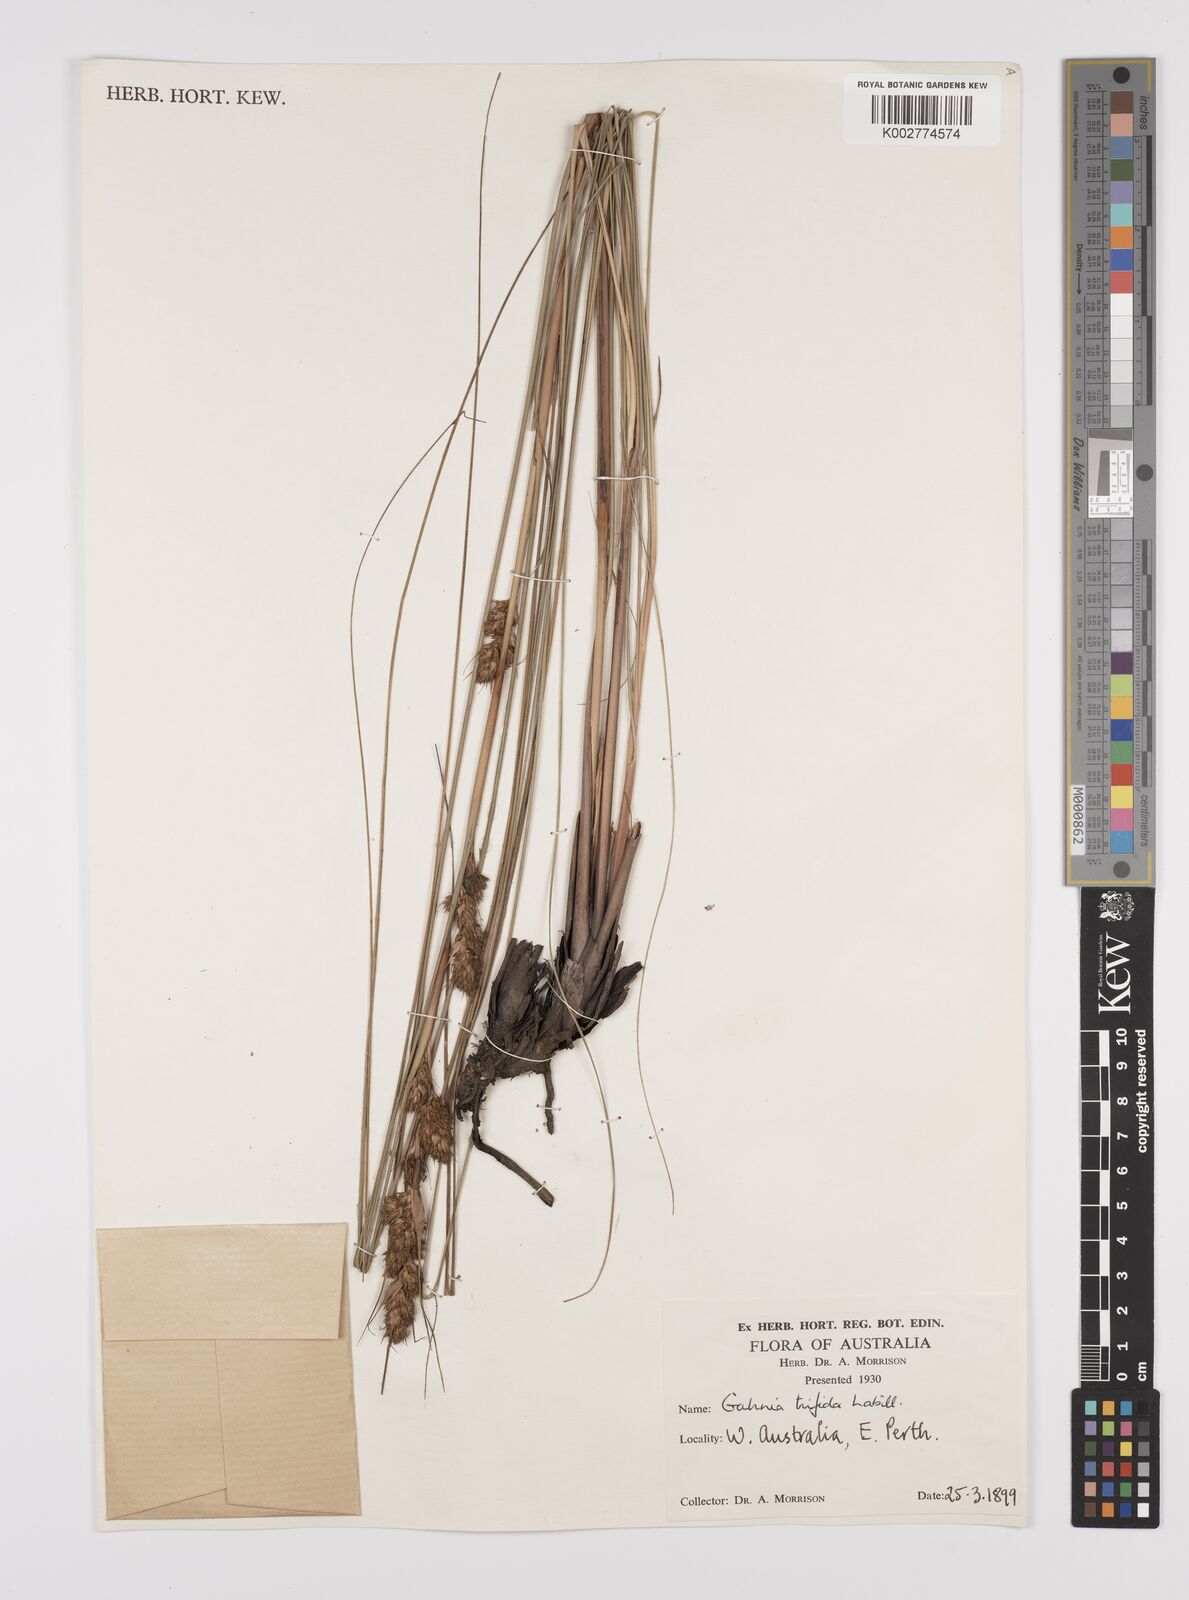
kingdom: Plantae
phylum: Tracheophyta
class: Liliopsida
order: Poales
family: Cyperaceae
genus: Gahnia
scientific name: Gahnia trifida
